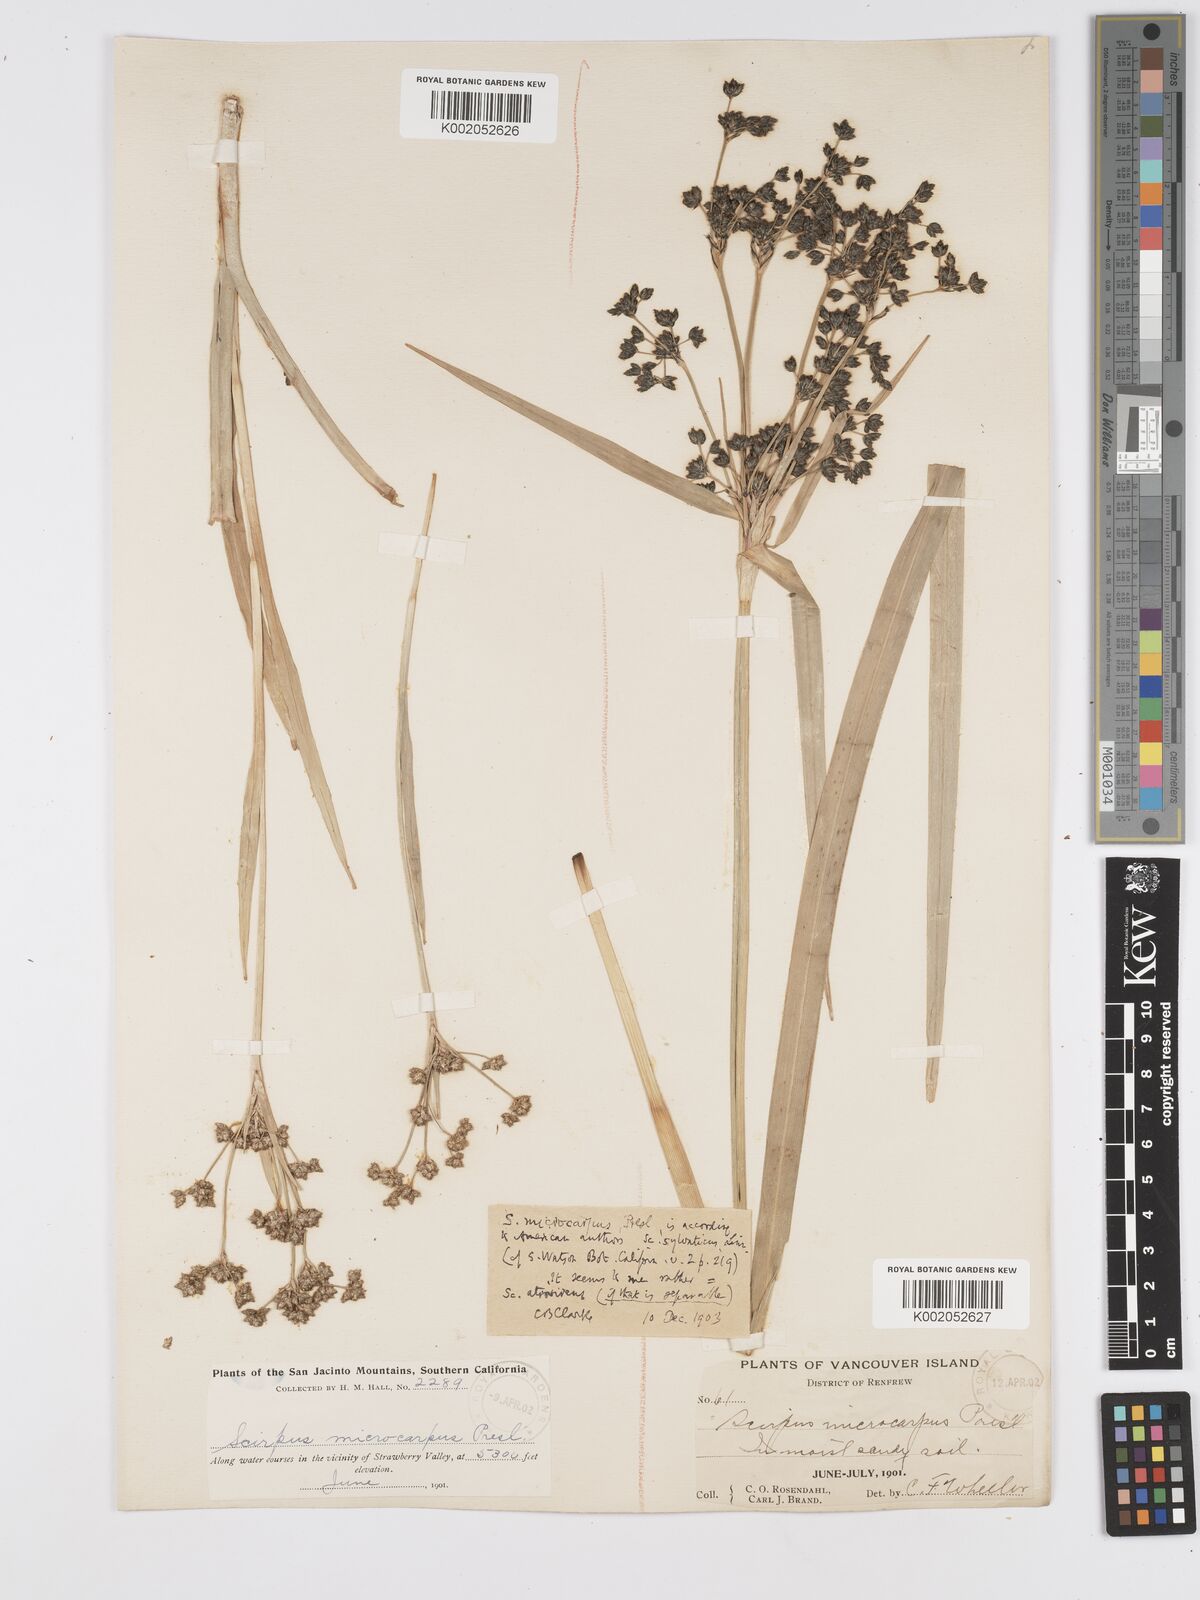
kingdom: Plantae
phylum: Tracheophyta
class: Liliopsida
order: Poales
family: Cyperaceae
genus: Scirpus
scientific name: Scirpus atrovirens
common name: Black bulrush
